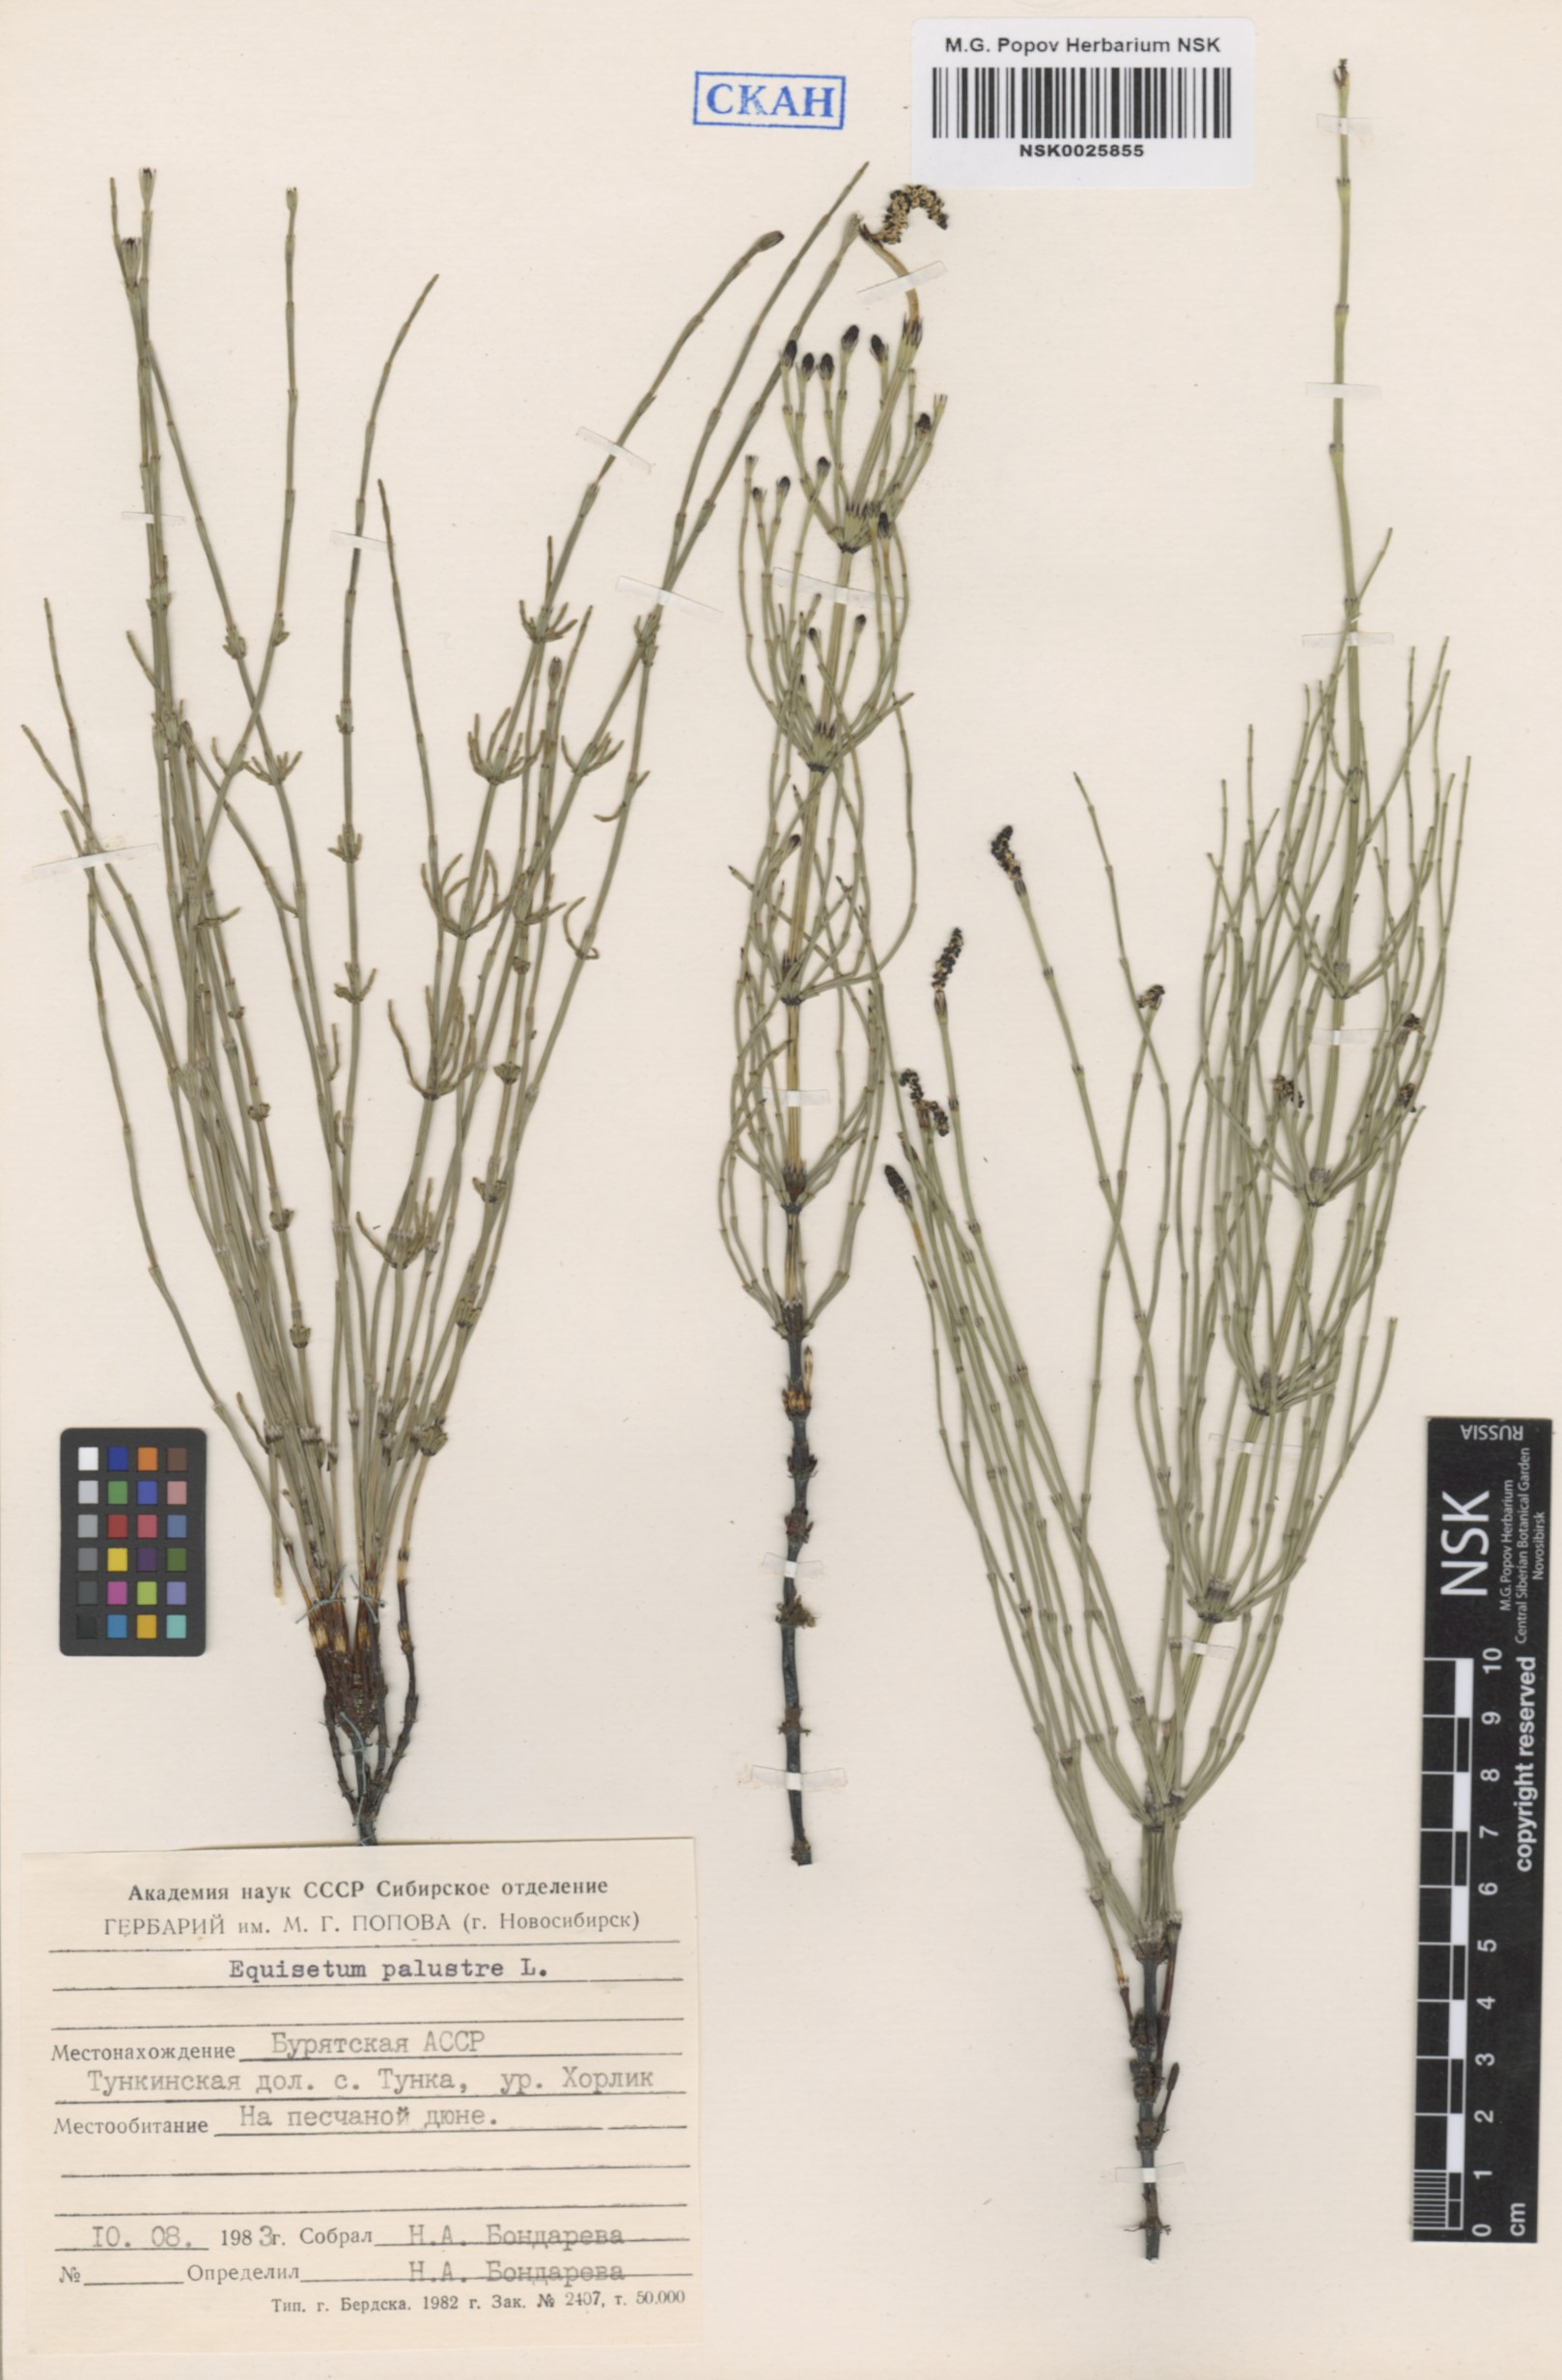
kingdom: Plantae
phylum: Tracheophyta
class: Polypodiopsida
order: Equisetales
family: Equisetaceae
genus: Equisetum
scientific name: Equisetum palustre
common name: Marsh horsetail
